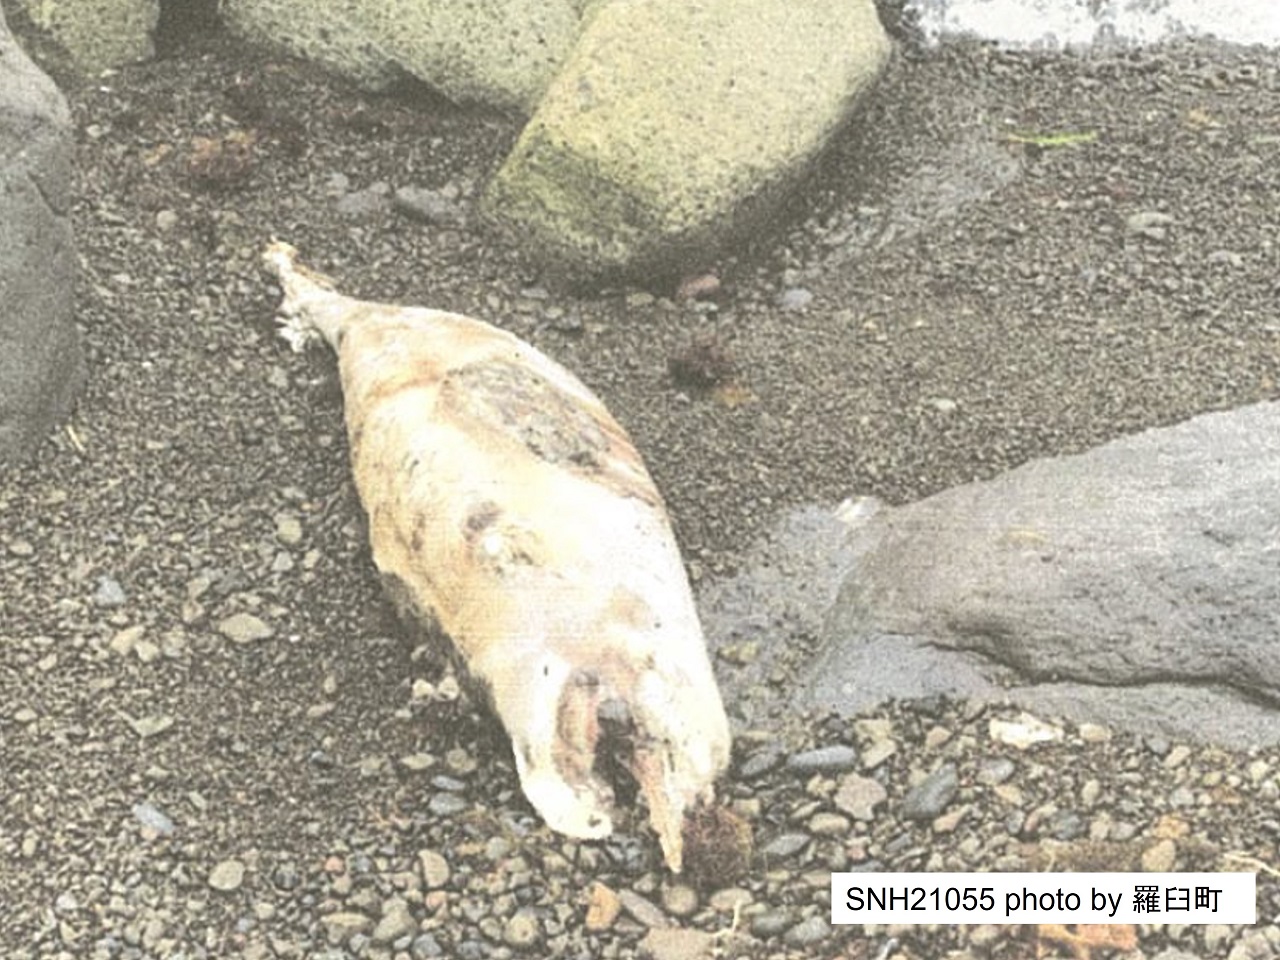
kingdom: Animalia
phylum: Chordata
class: Mammalia
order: Cetacea
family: Phocoenidae
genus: Phocoenoides
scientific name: Phocoenoides dalli
